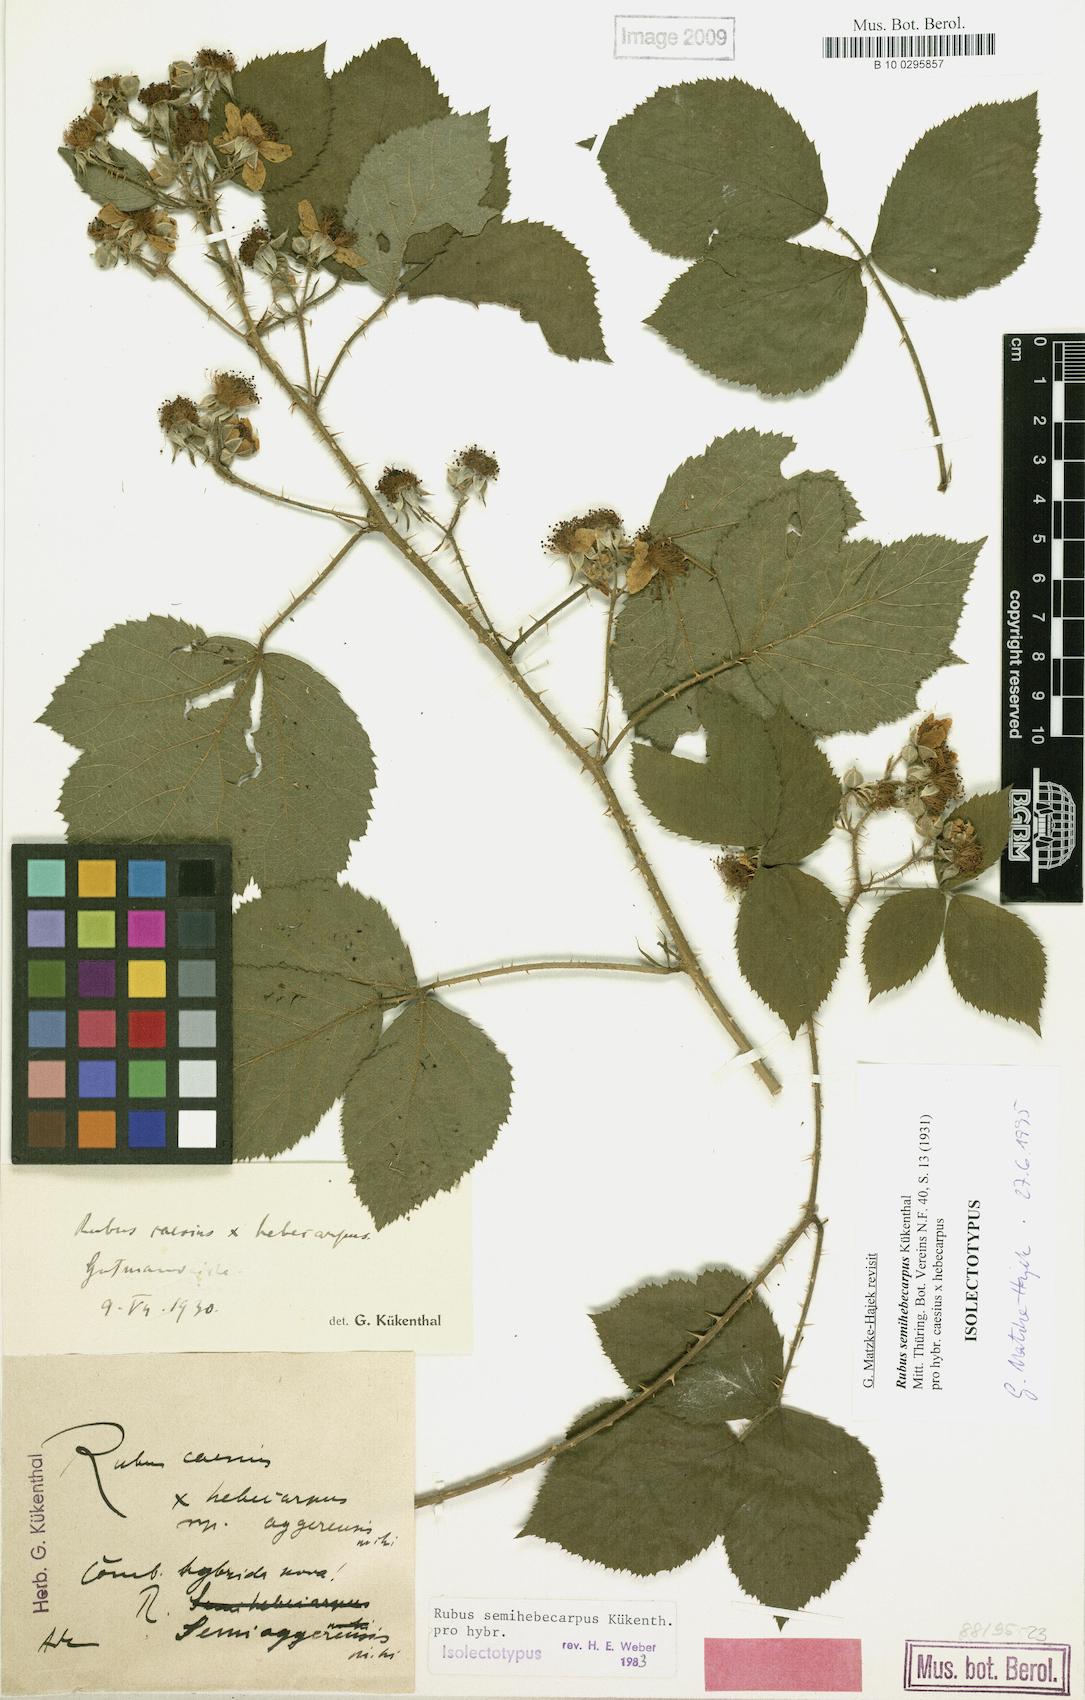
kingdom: Plantae
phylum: Tracheophyta
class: Magnoliopsida
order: Rosales
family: Rosaceae
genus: Rubus
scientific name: Rubus grandiflorus
